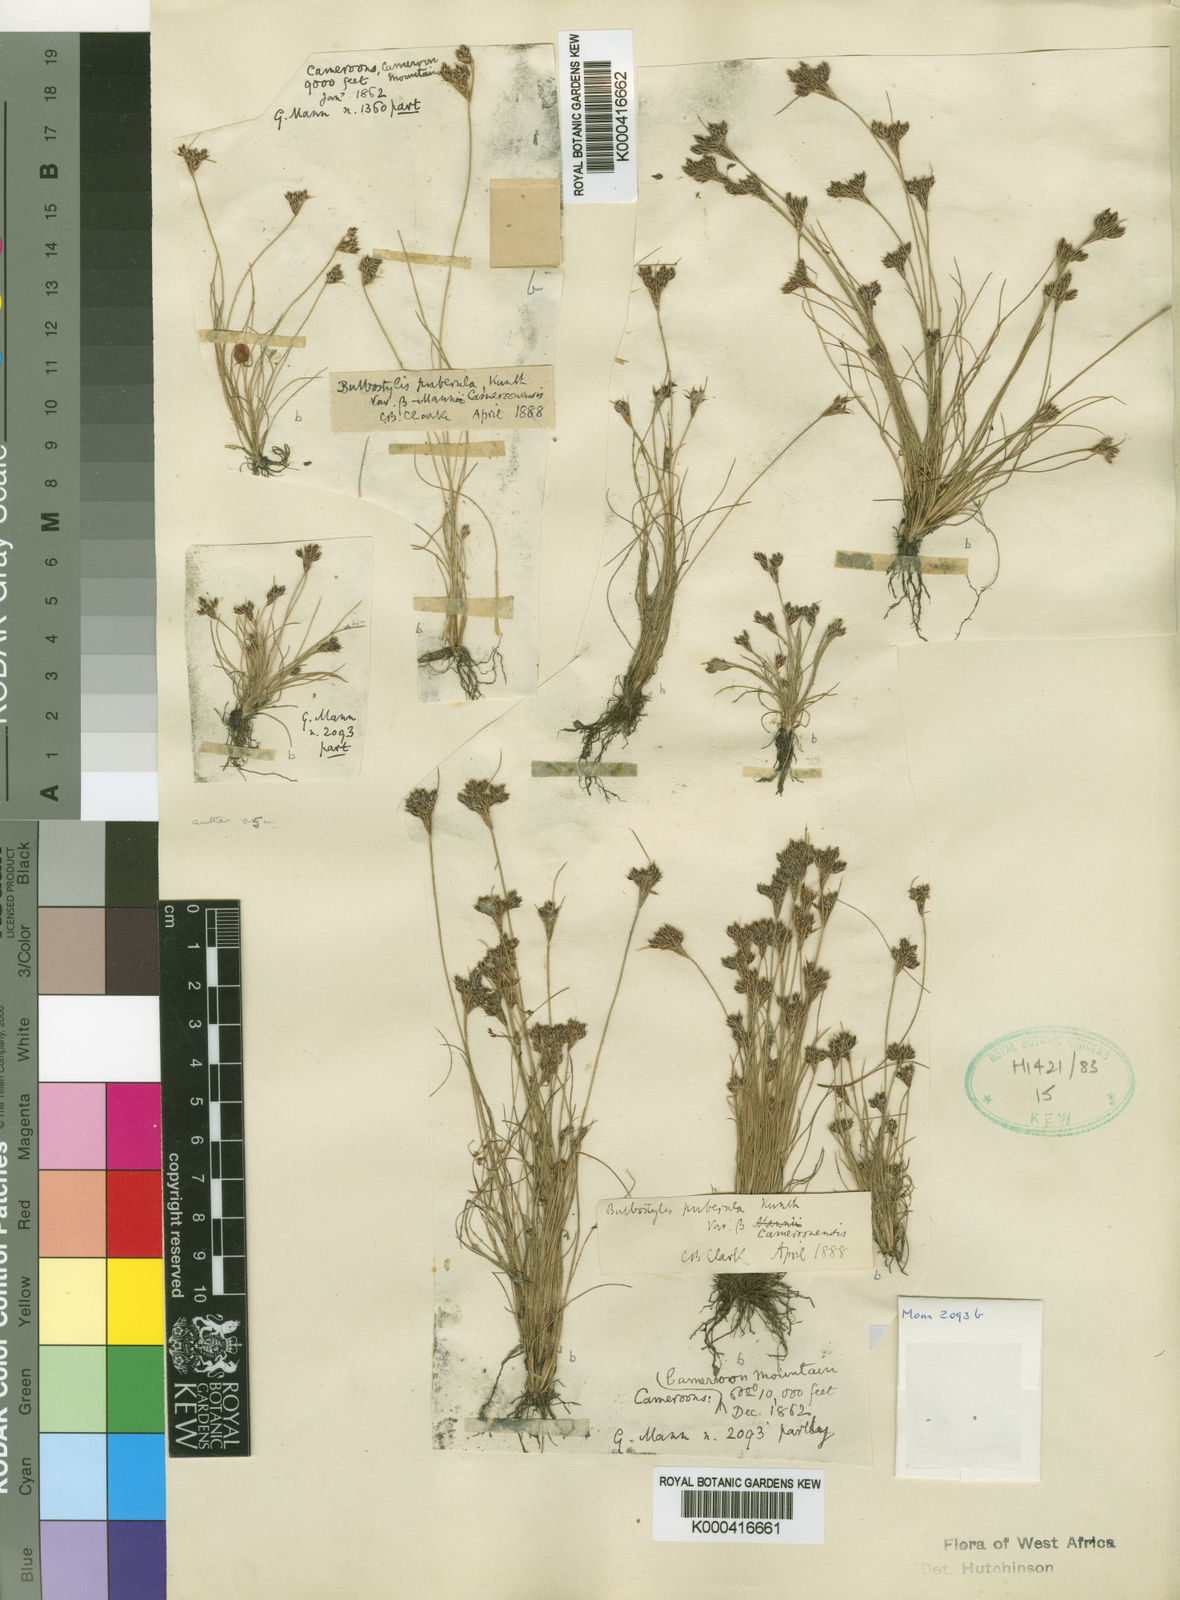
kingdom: Plantae
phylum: Tracheophyta
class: Liliopsida
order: Poales
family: Cyperaceae
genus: Fimbristylis
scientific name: Fimbristylis densa
